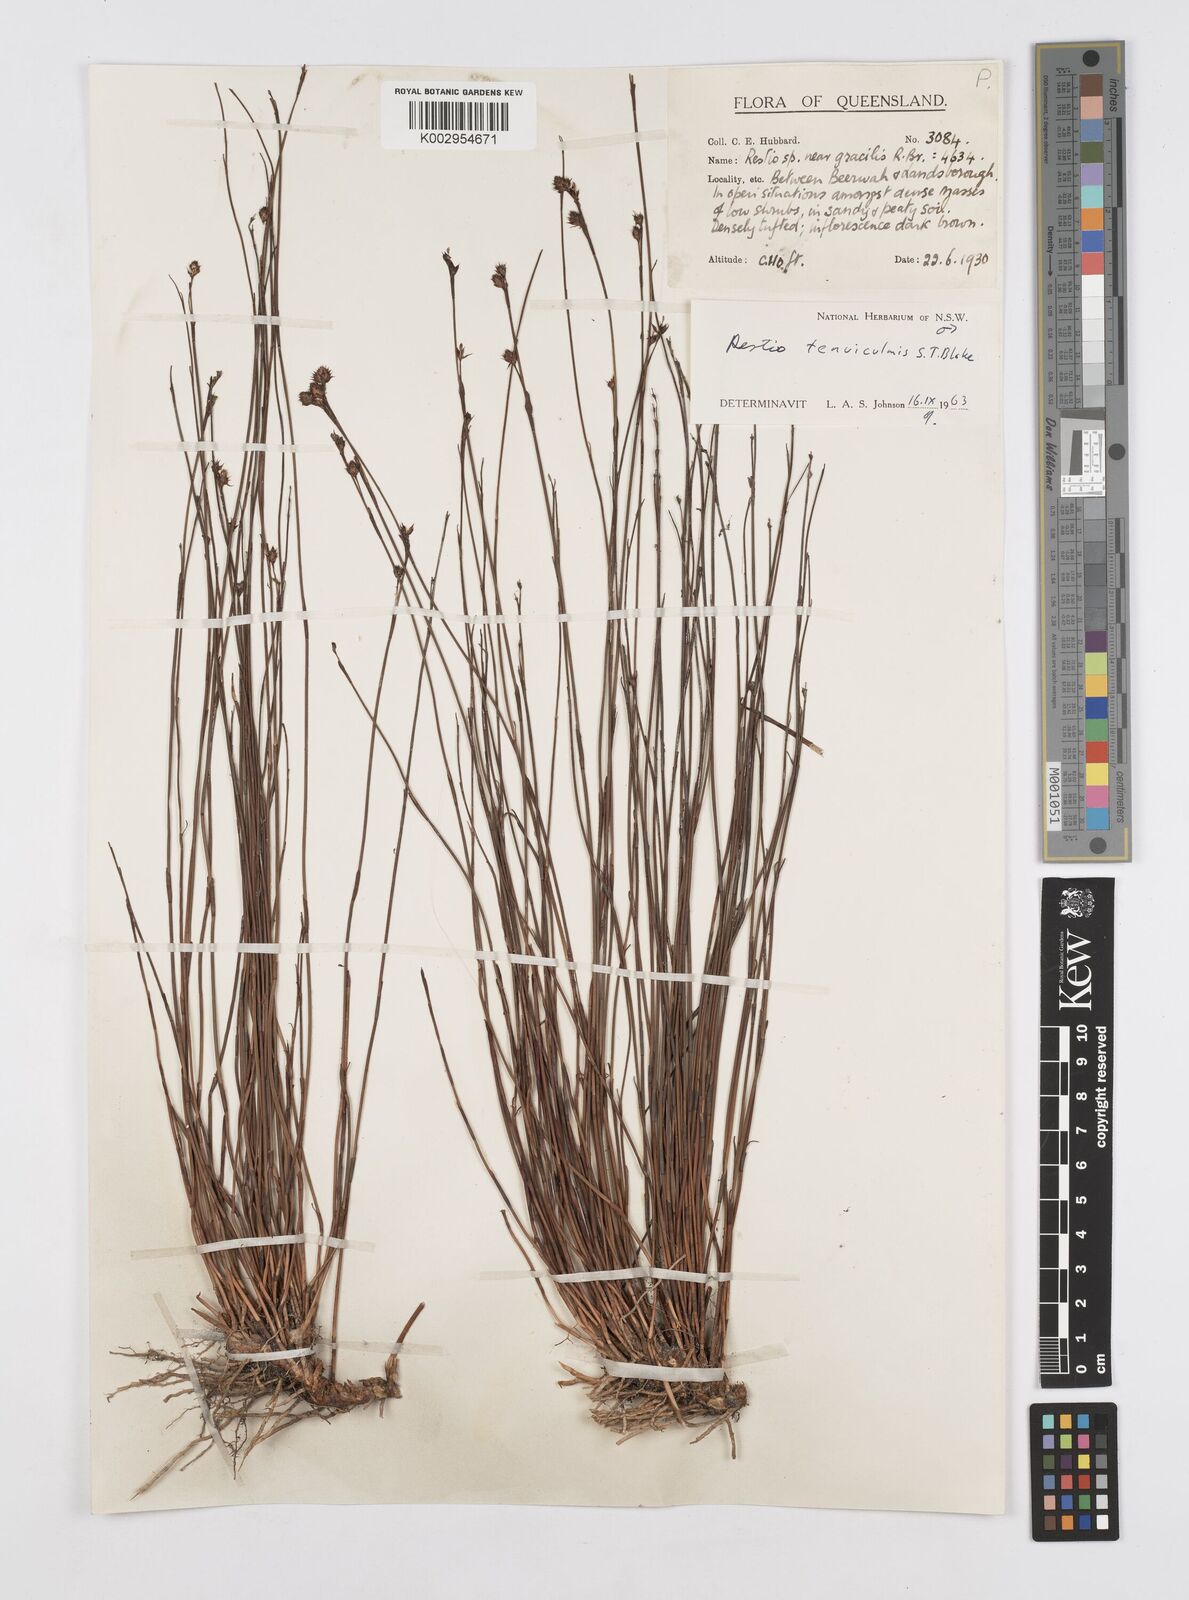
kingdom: Plantae
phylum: Tracheophyta
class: Liliopsida
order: Poales
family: Restionaceae
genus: Baloskion
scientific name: Baloskion tenuiculme
